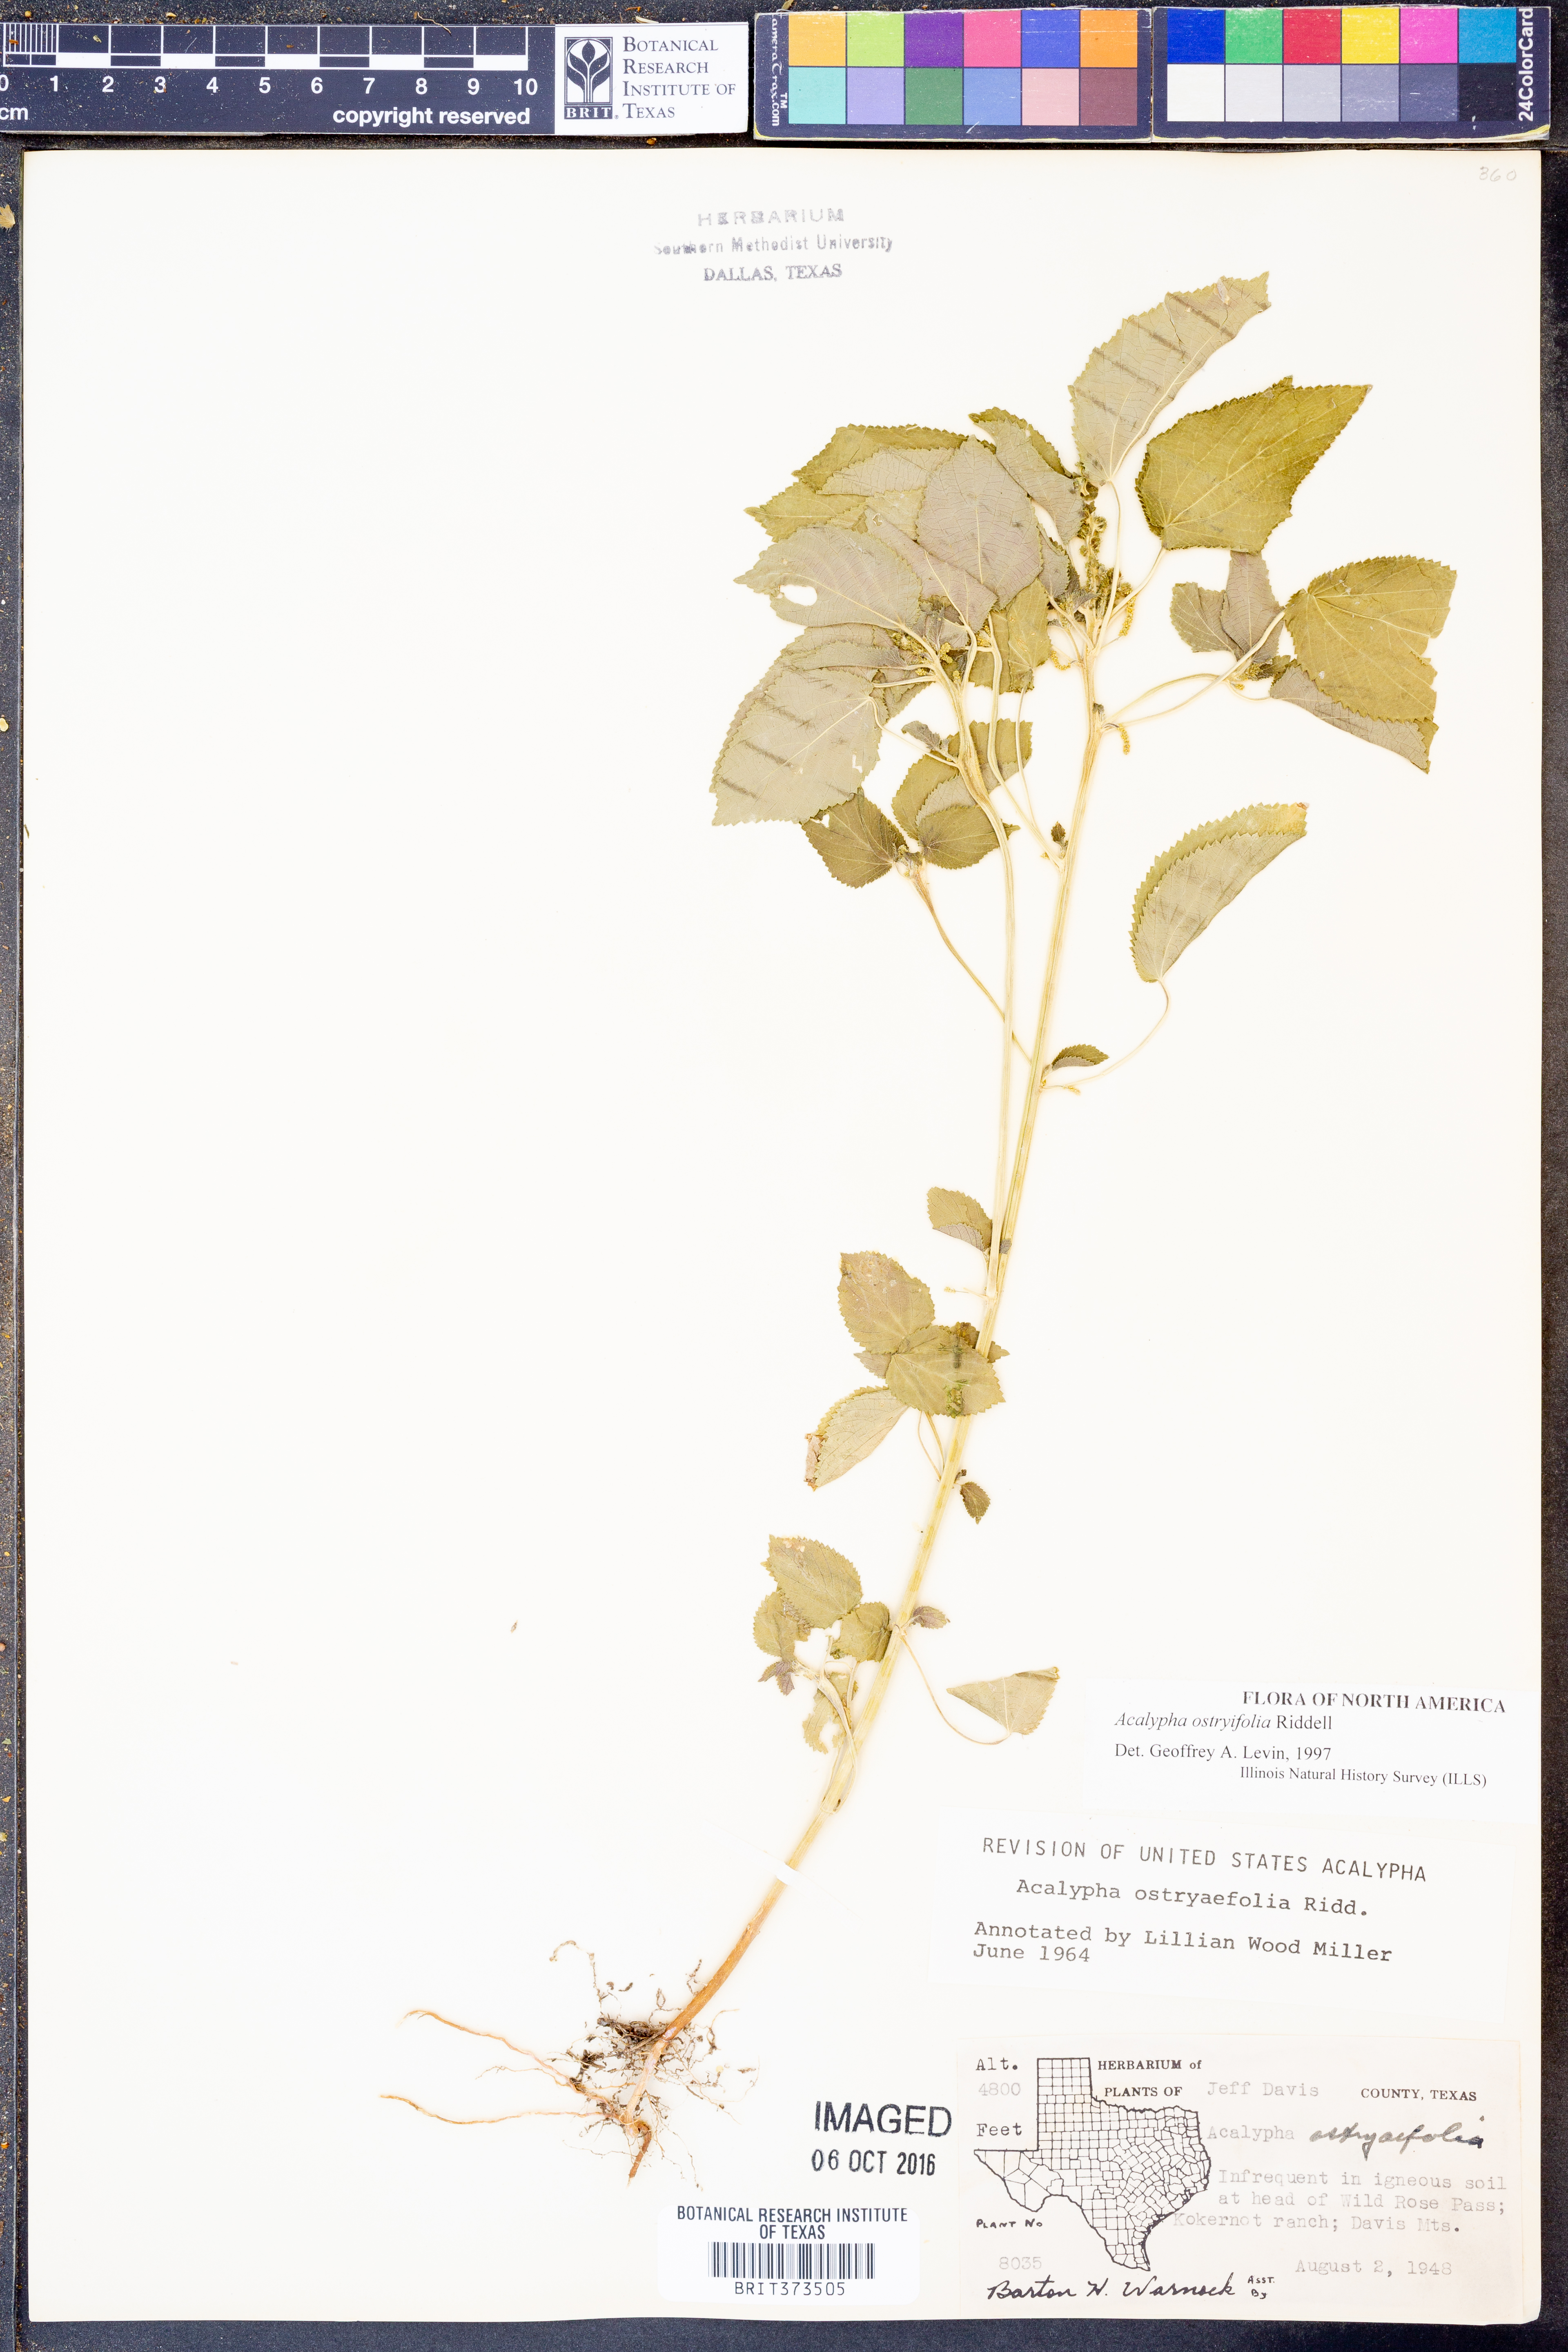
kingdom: Plantae
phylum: Tracheophyta
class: Magnoliopsida
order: Malpighiales
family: Euphorbiaceae
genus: Acalypha
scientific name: Acalypha persimilis
